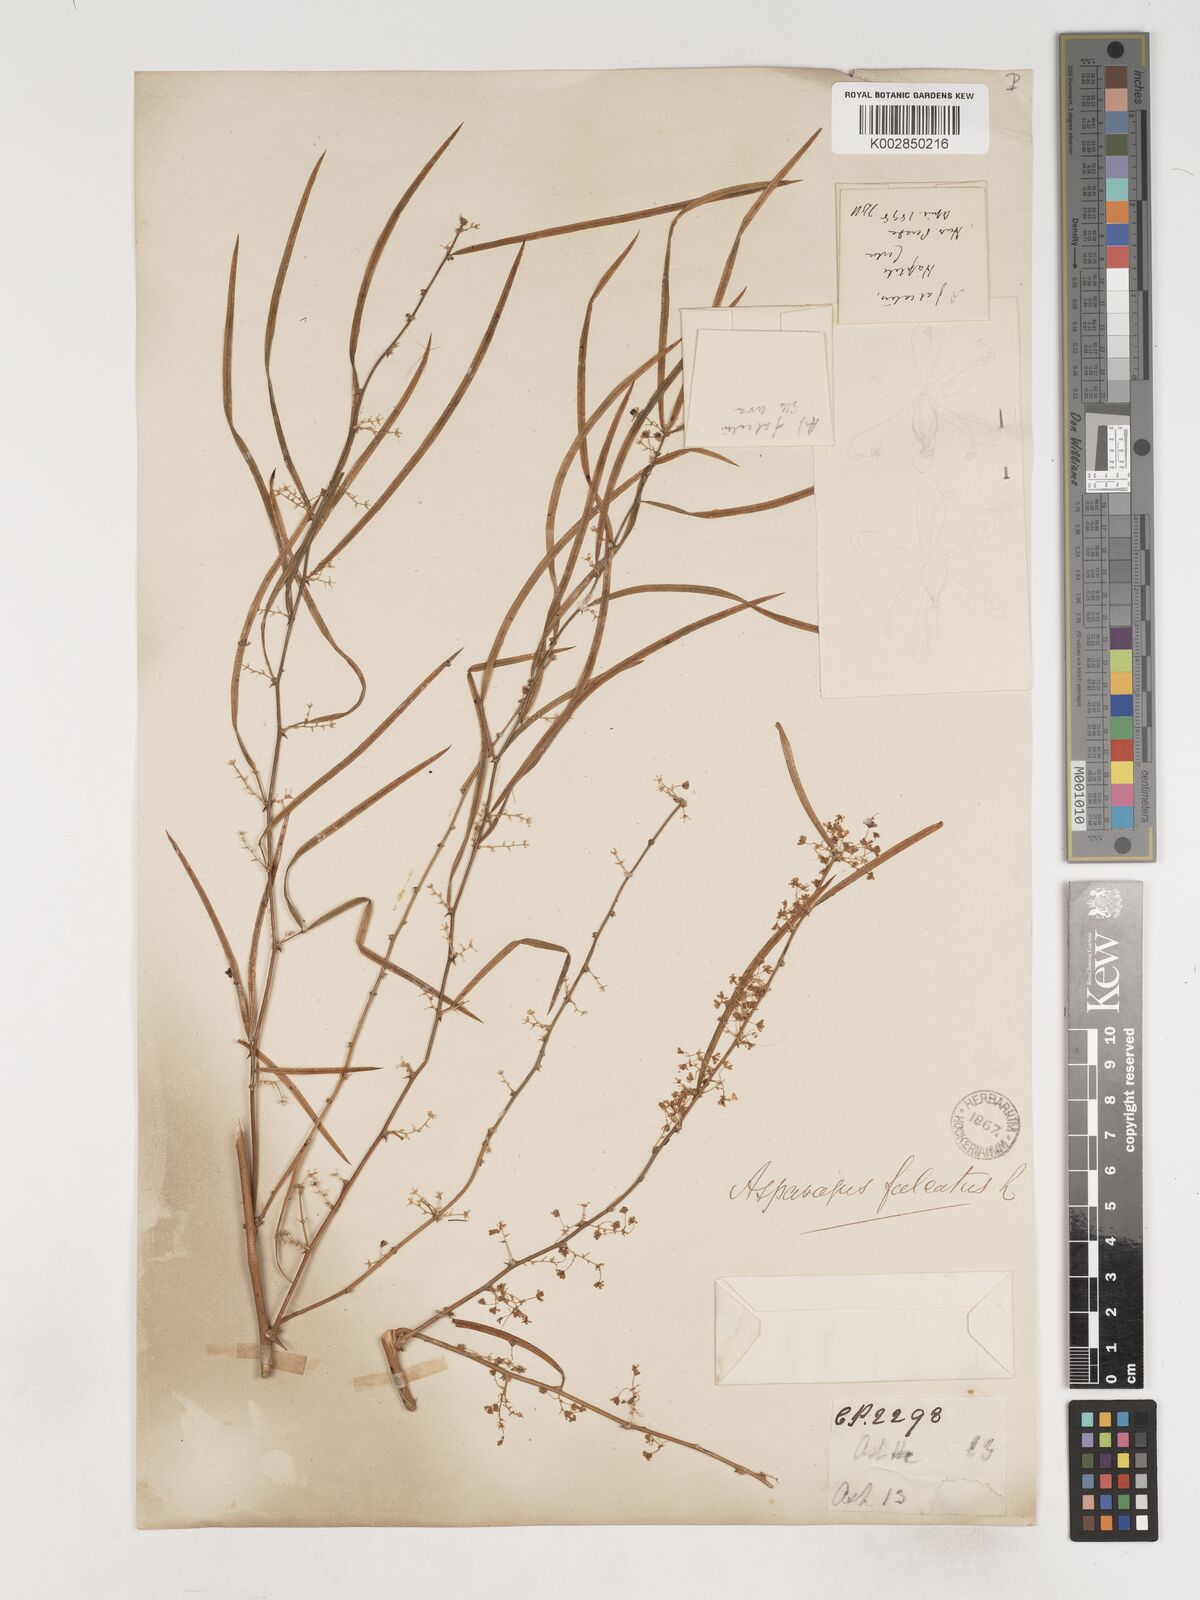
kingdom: Plantae
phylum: Tracheophyta
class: Liliopsida
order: Asparagales
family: Asparagaceae
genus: Asparagus
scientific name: Asparagus falcatus
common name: Asparagus
